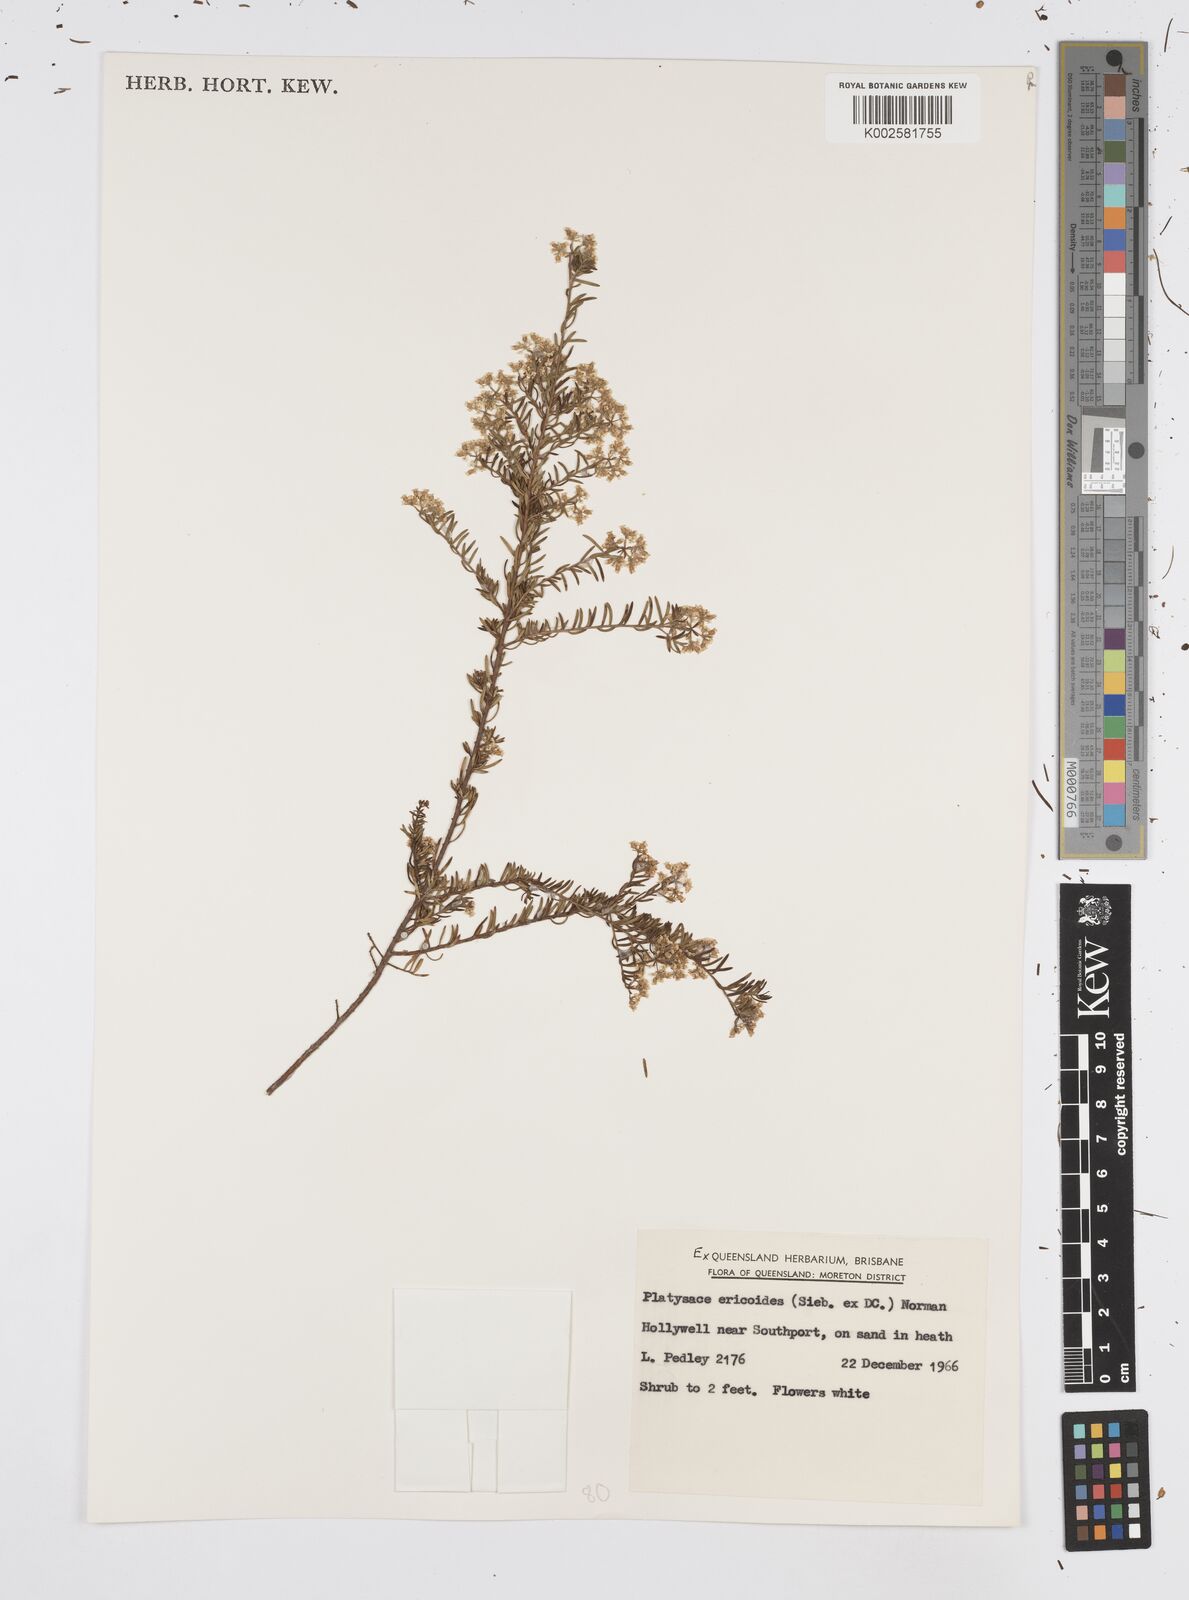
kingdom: Plantae
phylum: Tracheophyta
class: Magnoliopsida
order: Apiales
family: Apiaceae
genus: Platysace
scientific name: Platysace ericoides
